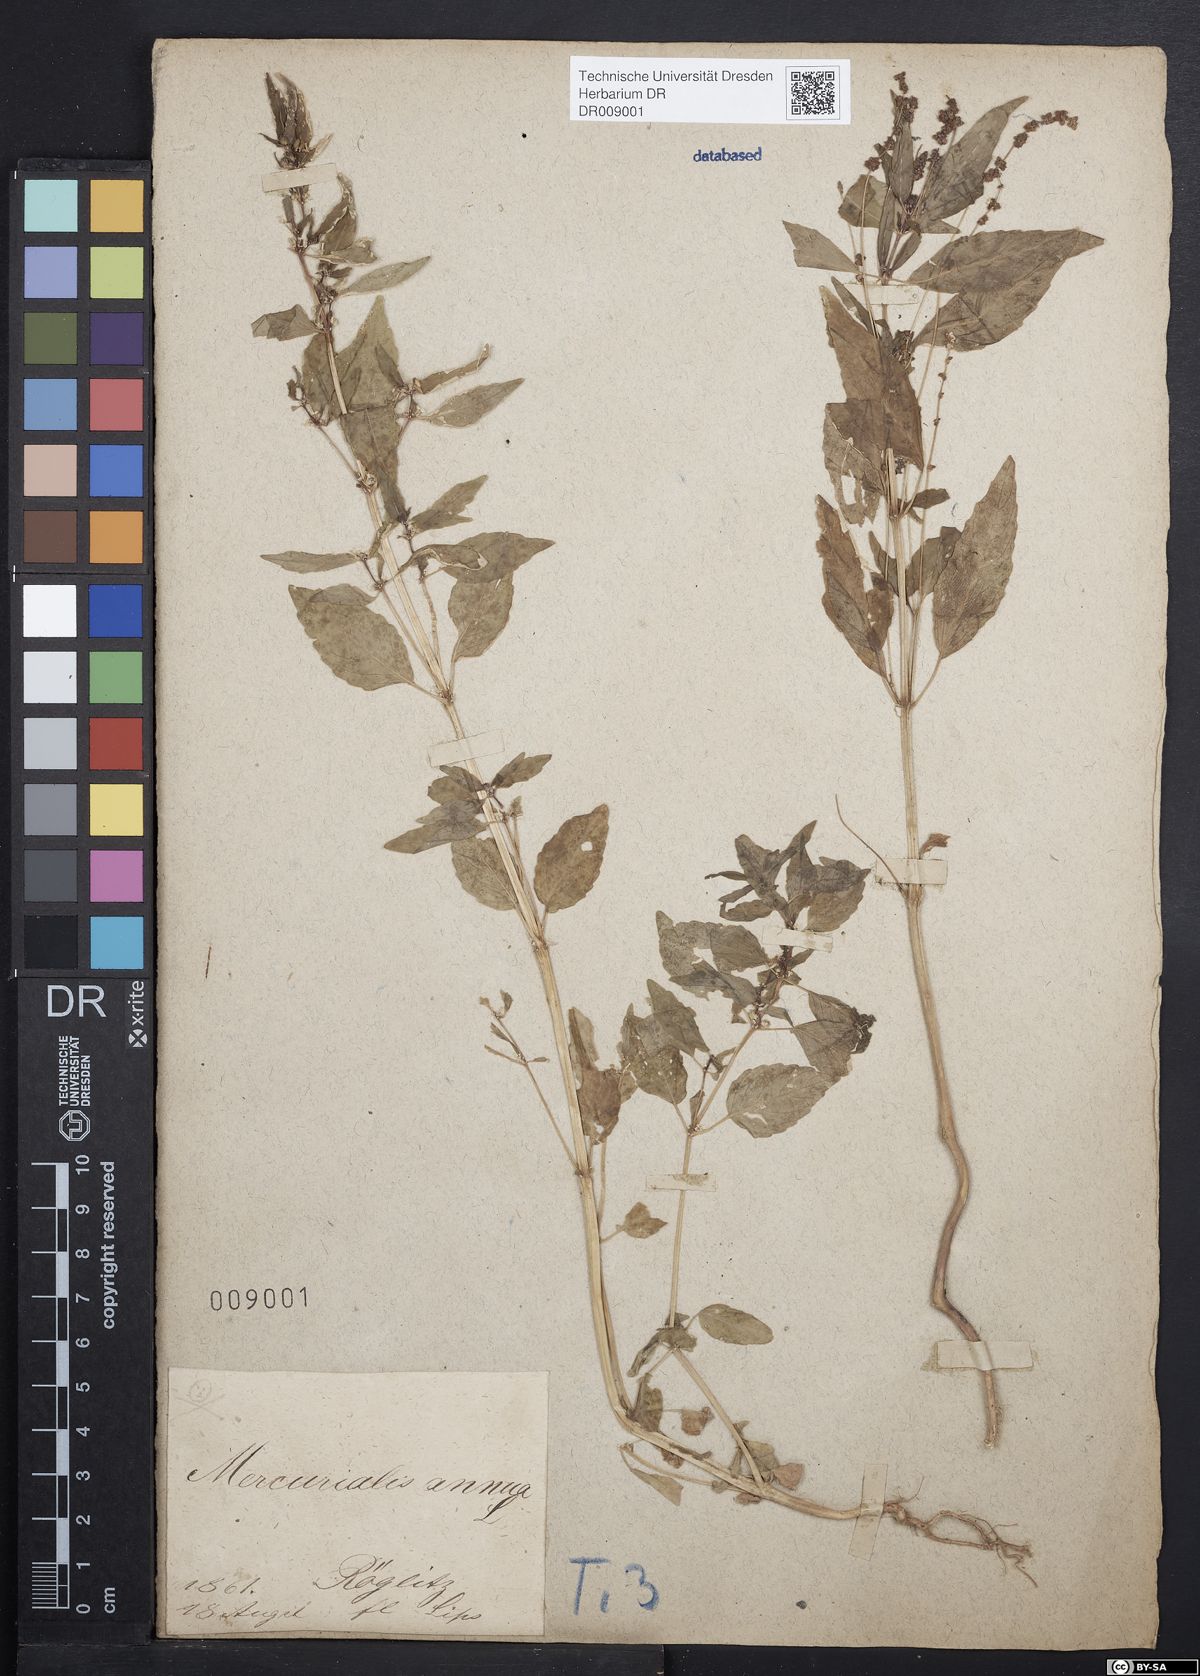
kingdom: Plantae
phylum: Tracheophyta
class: Magnoliopsida
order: Malpighiales
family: Euphorbiaceae
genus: Mercurialis
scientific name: Mercurialis annua
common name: Annual mercury
